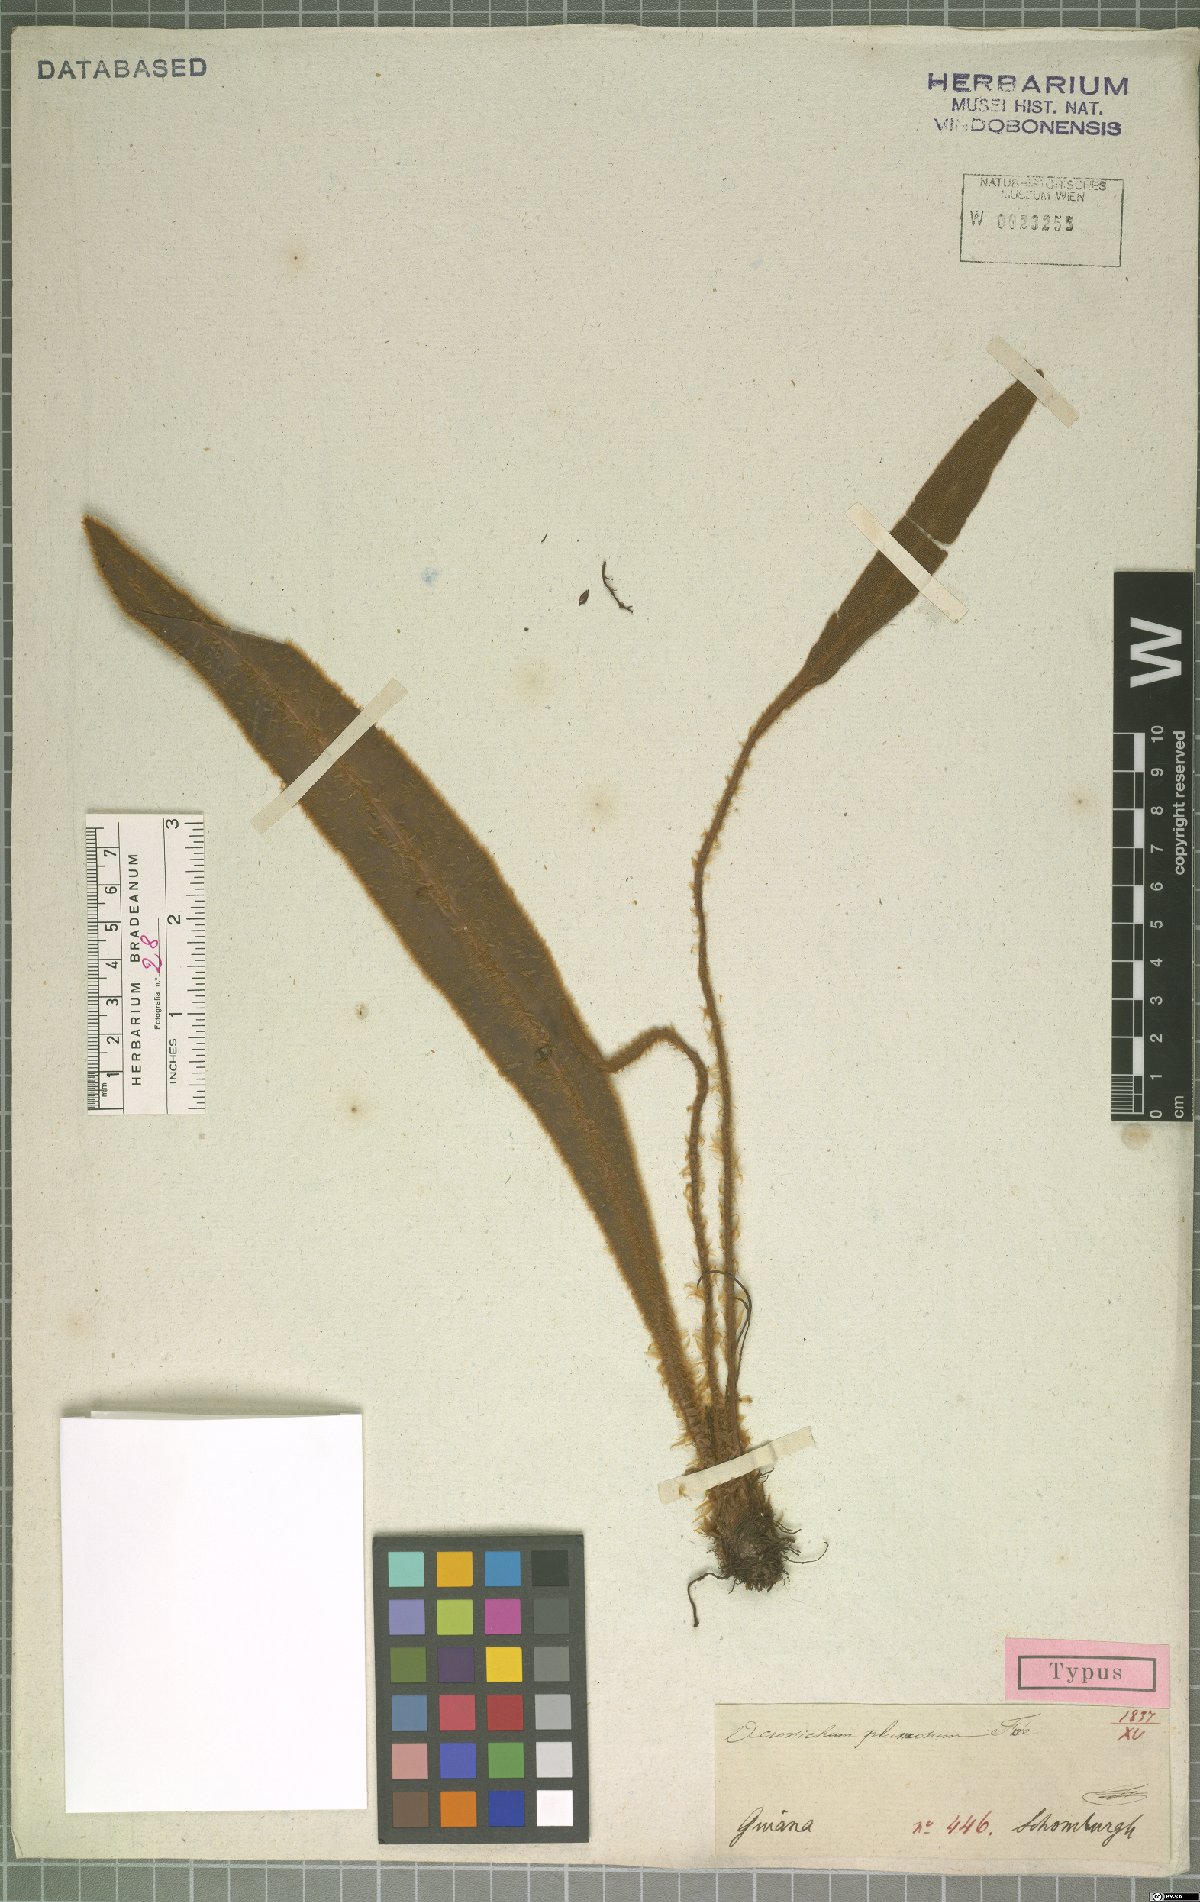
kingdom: Plantae
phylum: Tracheophyta
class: Polypodiopsida
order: Polypodiales
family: Dryopteridaceae
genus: Elaphoglossum
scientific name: Elaphoglossum plumosum
